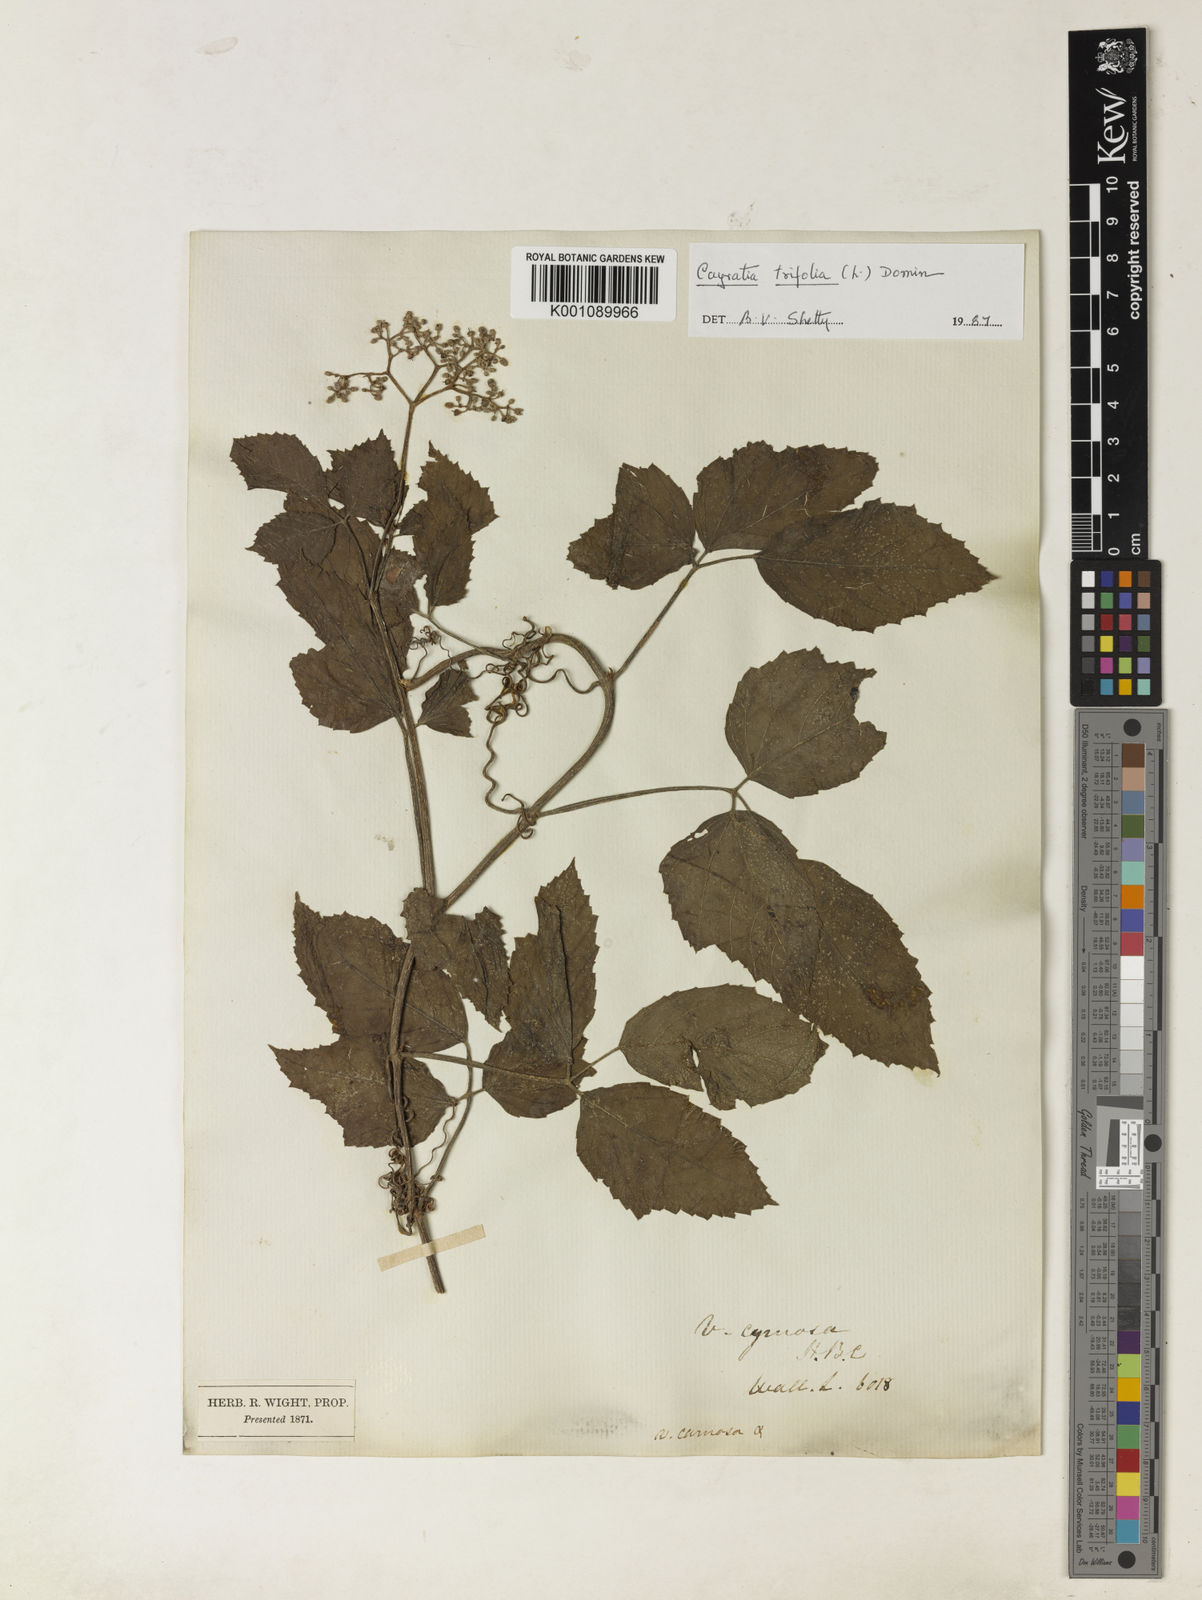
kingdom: Plantae
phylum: Tracheophyta
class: Magnoliopsida
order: Vitales
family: Vitaceae
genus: Causonis
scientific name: Causonis trifolia
